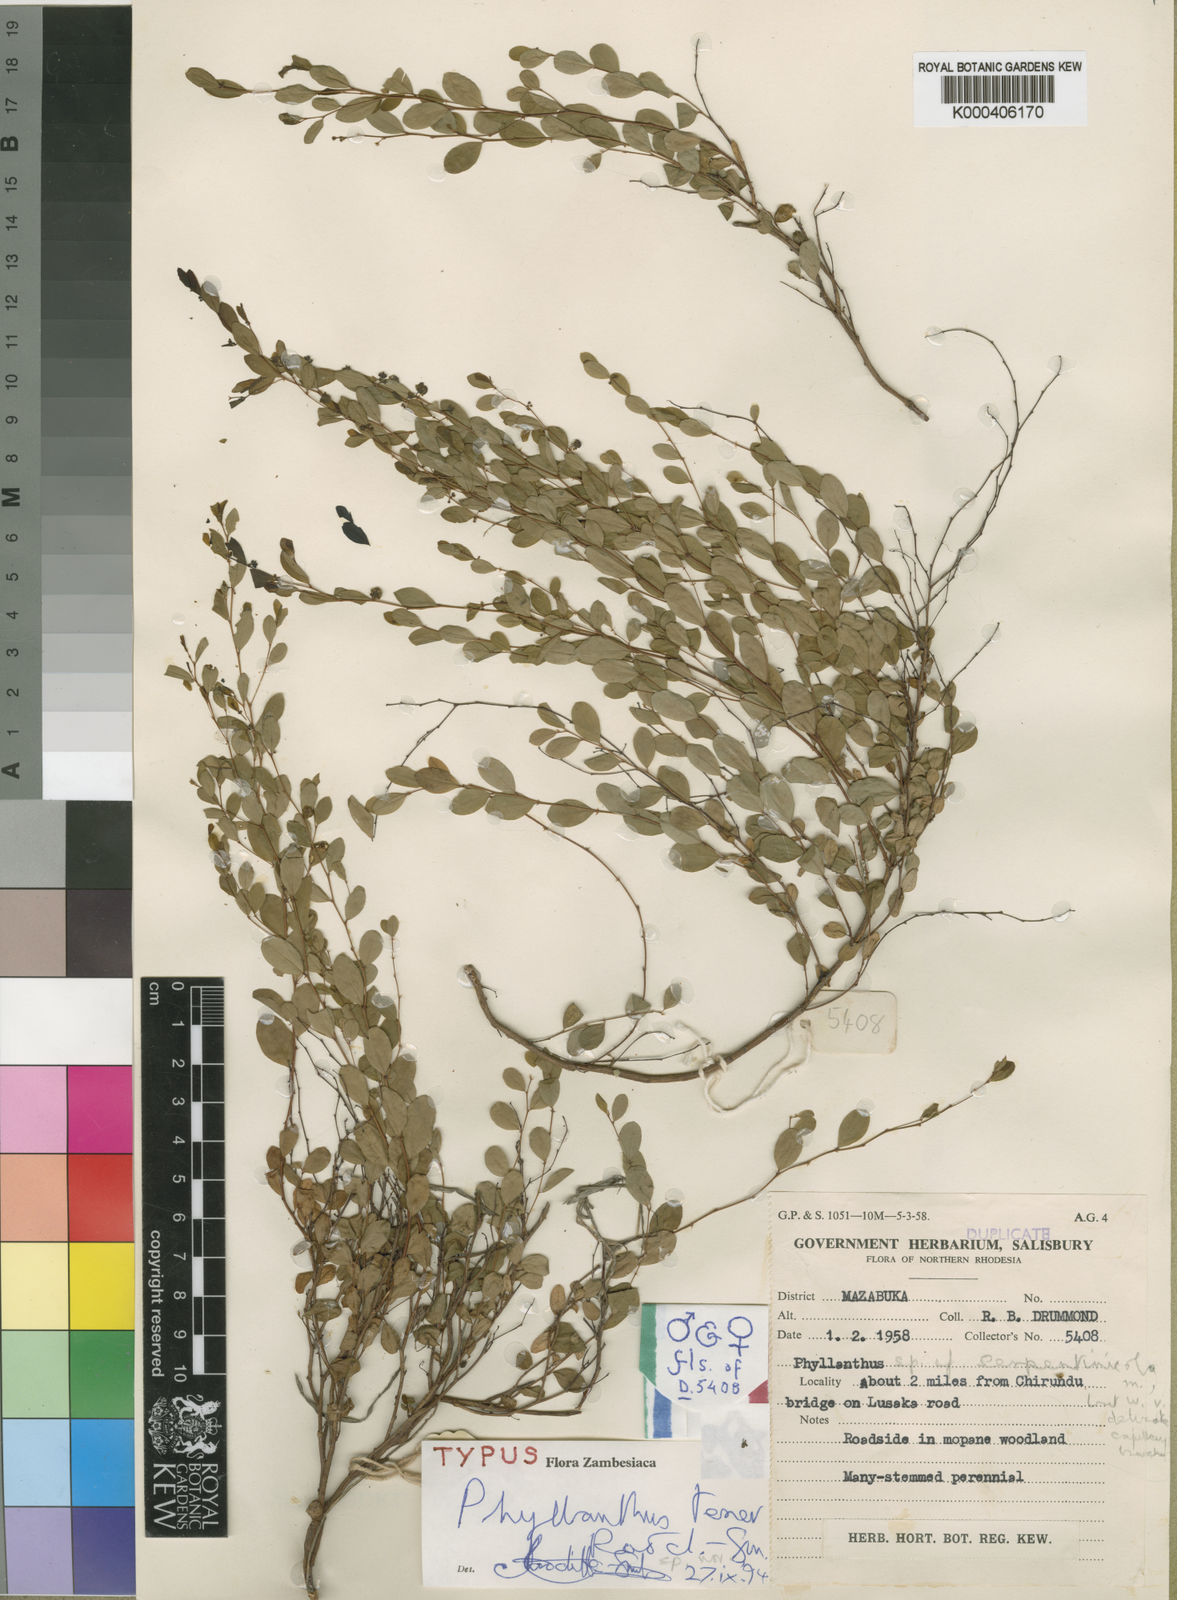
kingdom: Plantae
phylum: Tracheophyta
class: Magnoliopsida
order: Malpighiales
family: Phyllanthaceae
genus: Phyllanthus
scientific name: Phyllanthus tener
